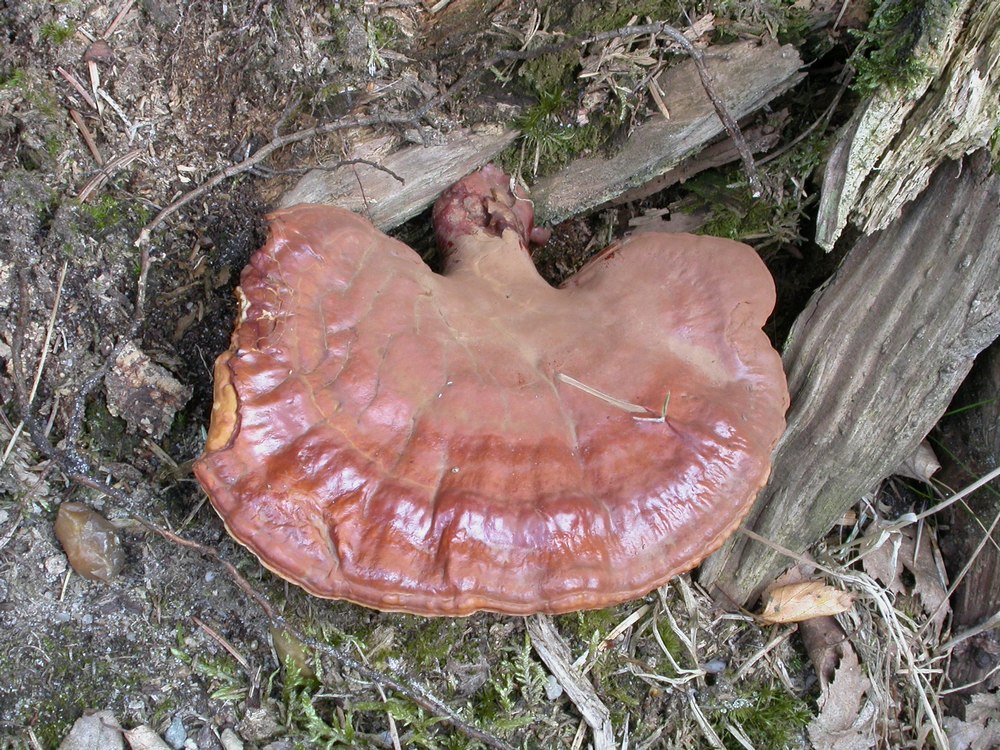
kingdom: Fungi
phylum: Basidiomycota
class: Agaricomycetes
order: Polyporales
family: Polyporaceae
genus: Ganoderma
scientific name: Ganoderma lucidum
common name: skinnende lakporesvamp
